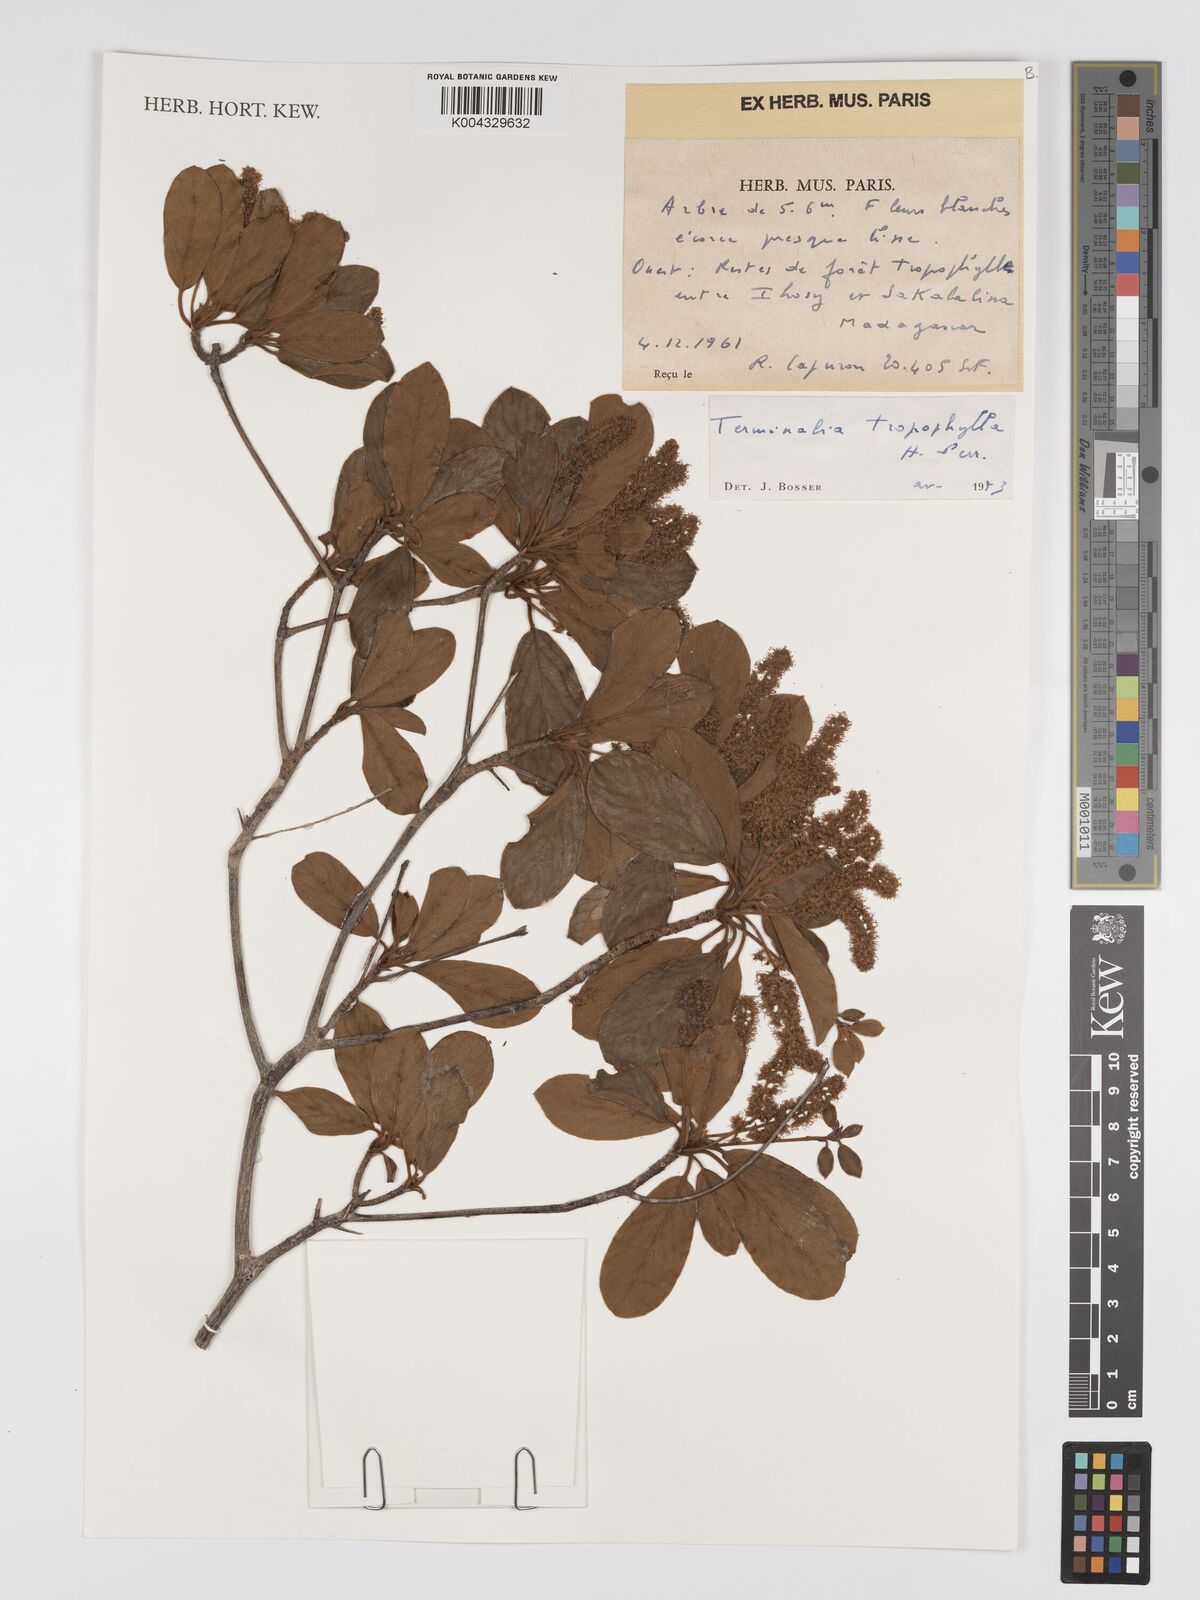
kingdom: Plantae
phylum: Tracheophyta
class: Magnoliopsida
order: Myrtales
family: Combretaceae
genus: Terminalia
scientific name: Terminalia tropophylla
